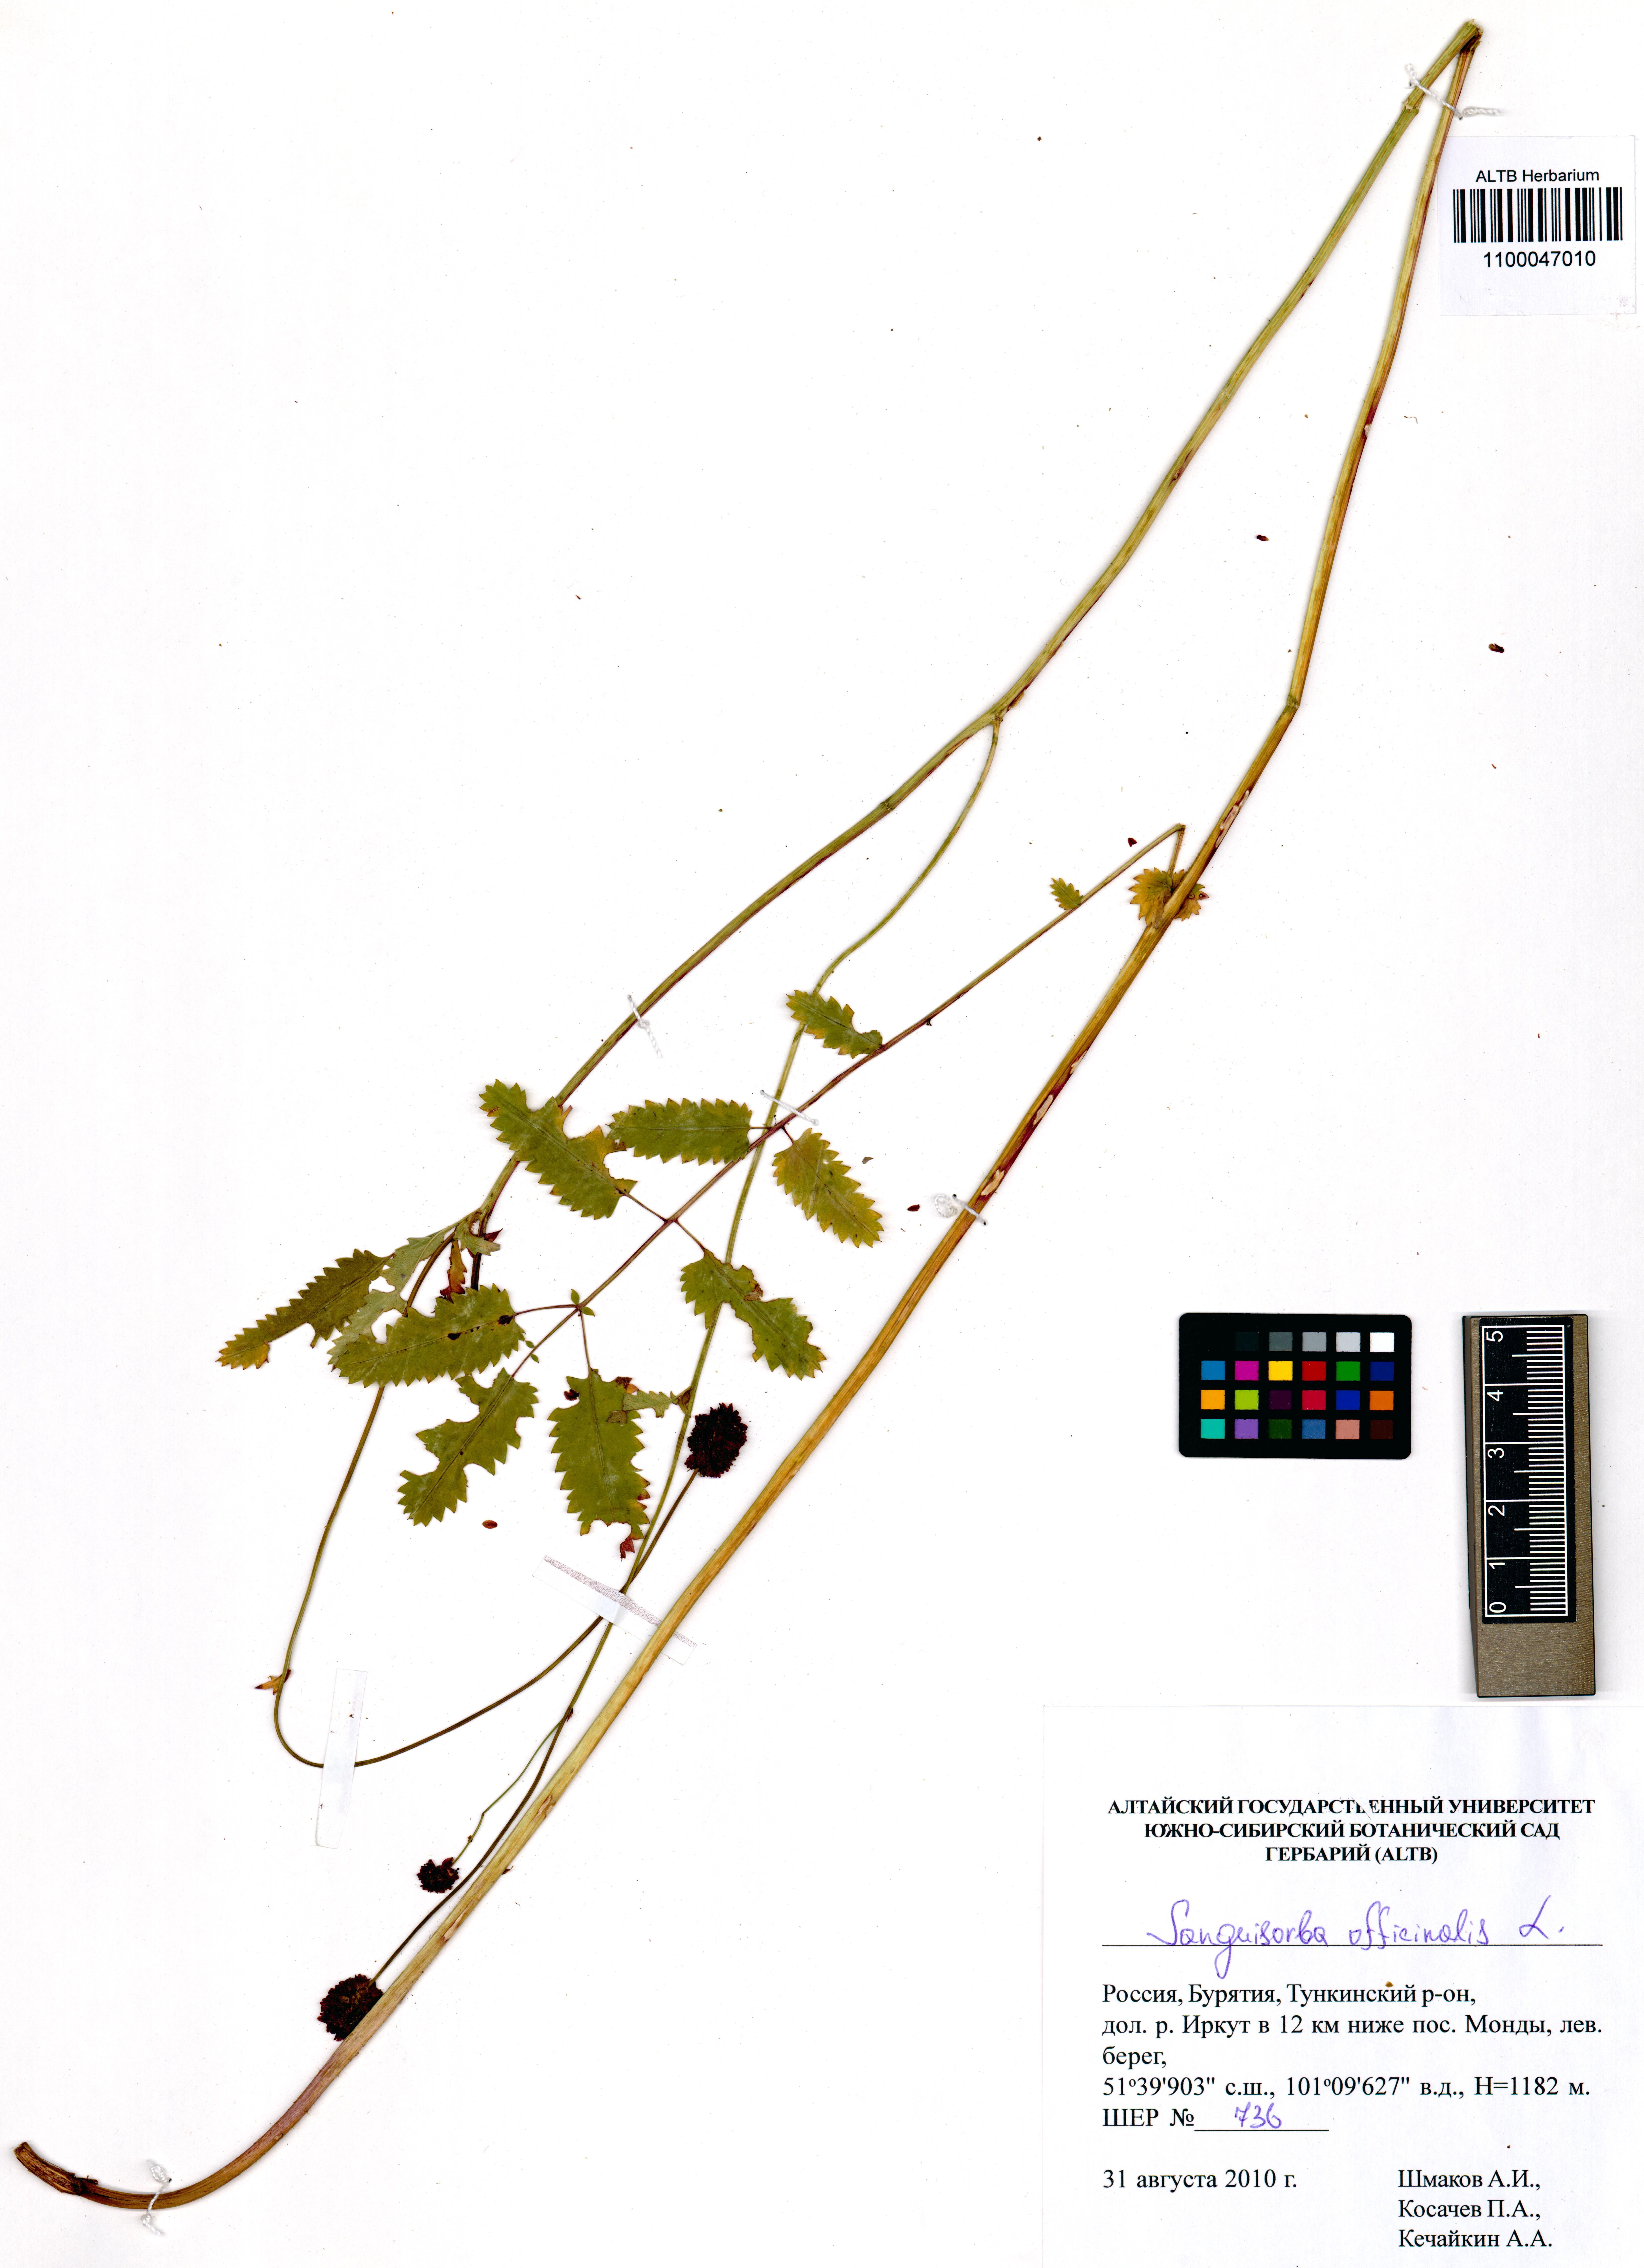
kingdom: Plantae
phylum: Tracheophyta
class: Magnoliopsida
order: Rosales
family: Rosaceae
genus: Sanguisorba
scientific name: Sanguisorba officinalis
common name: Great burnet
